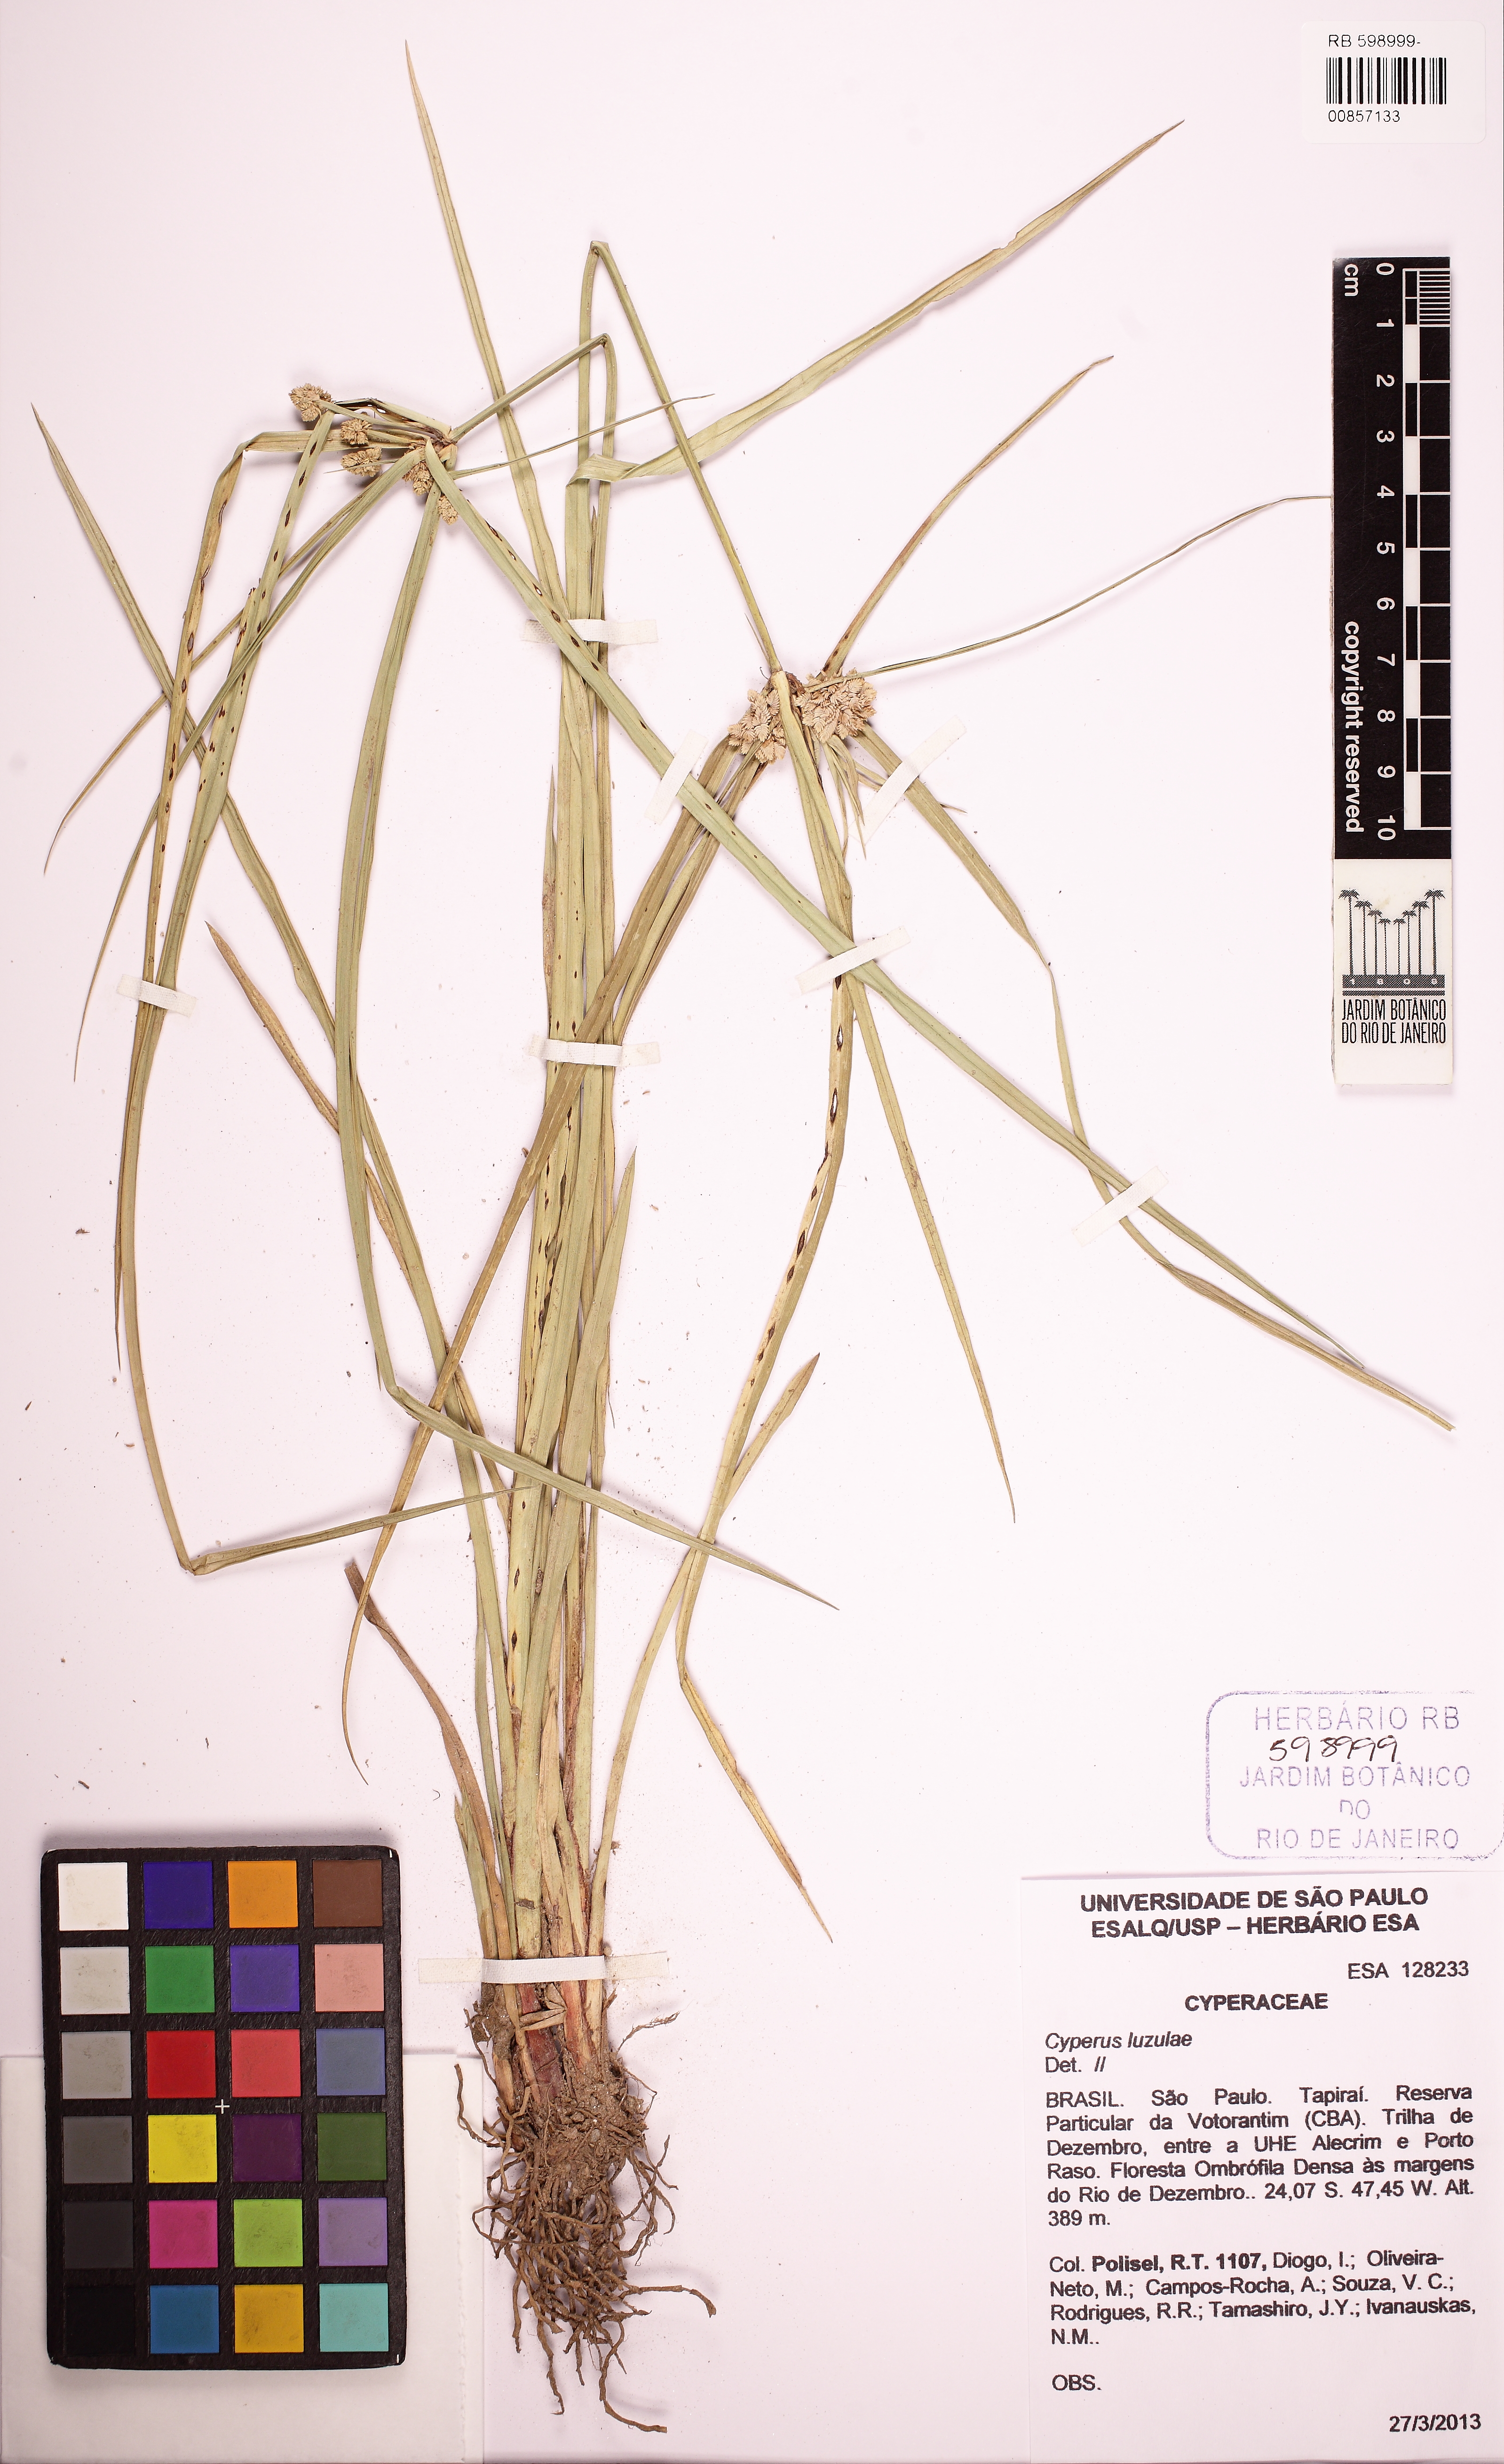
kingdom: Plantae
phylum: Tracheophyta
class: Liliopsida
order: Poales
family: Cyperaceae
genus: Cyperus
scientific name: Cyperus luzulae
